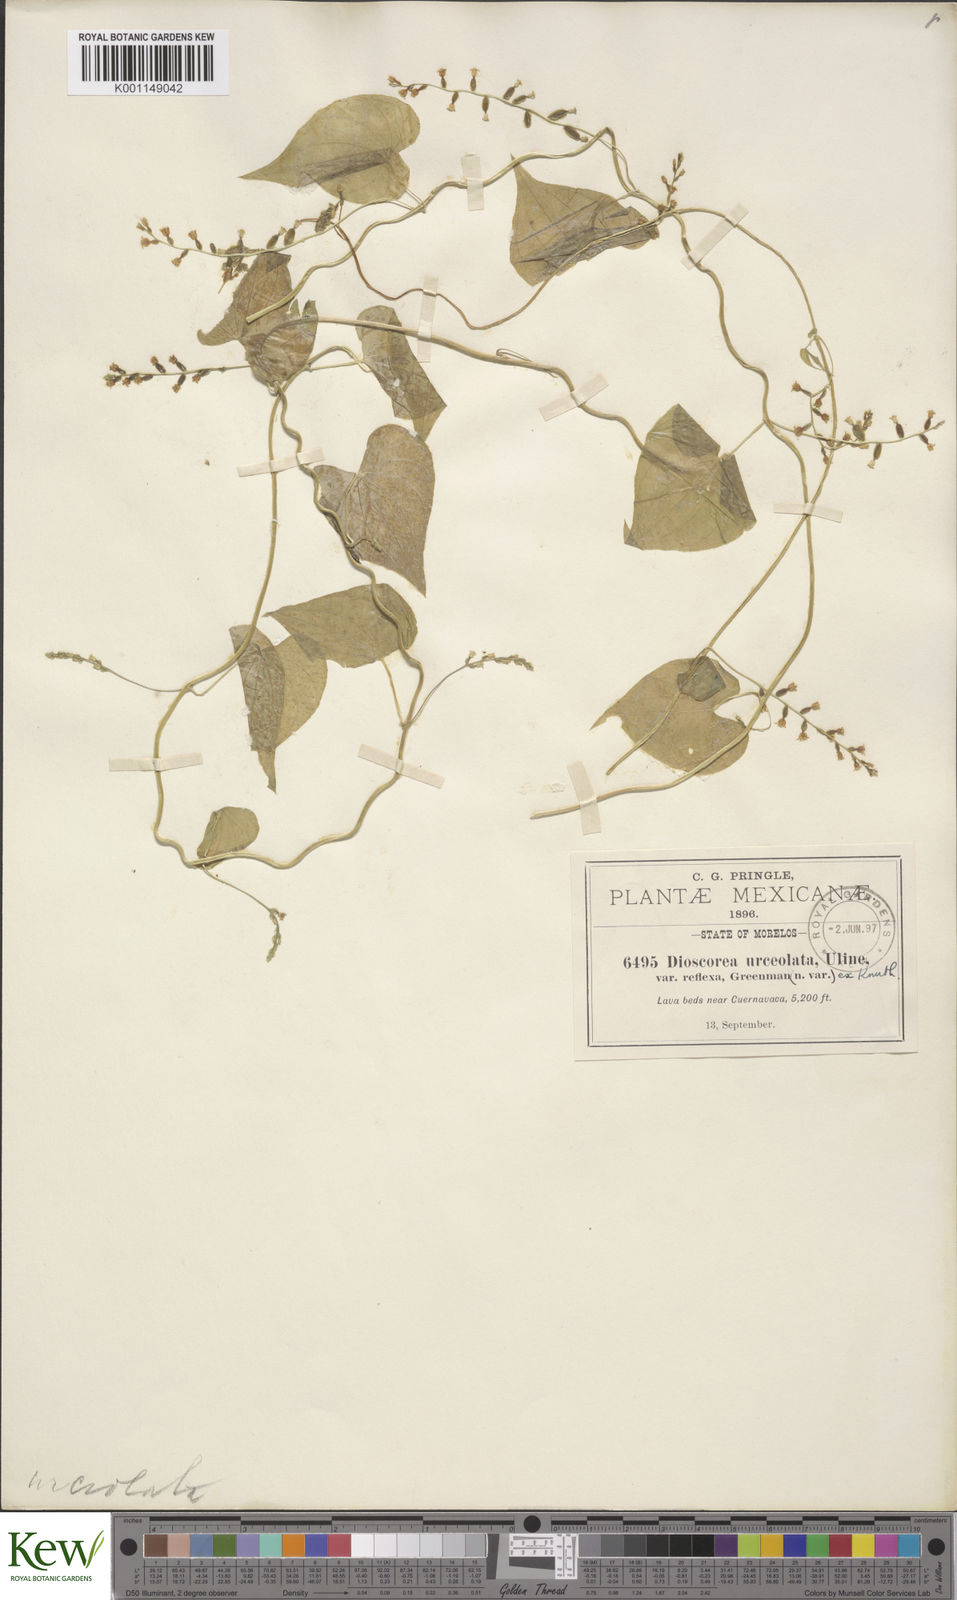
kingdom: Plantae
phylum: Tracheophyta
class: Liliopsida
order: Dioscoreales
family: Dioscoreaceae
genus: Dioscorea
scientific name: Dioscorea urceolata
